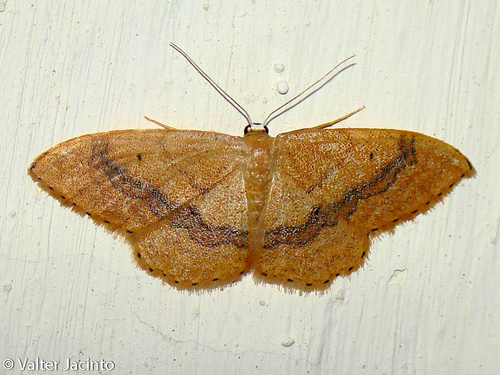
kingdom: Animalia
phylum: Arthropoda
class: Insecta
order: Lepidoptera
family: Geometridae
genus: Idaea
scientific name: Idaea
